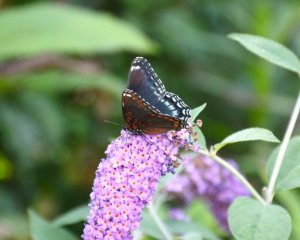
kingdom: Animalia
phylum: Arthropoda
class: Insecta
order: Lepidoptera
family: Nymphalidae
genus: Limenitis
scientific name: Limenitis astyanax
